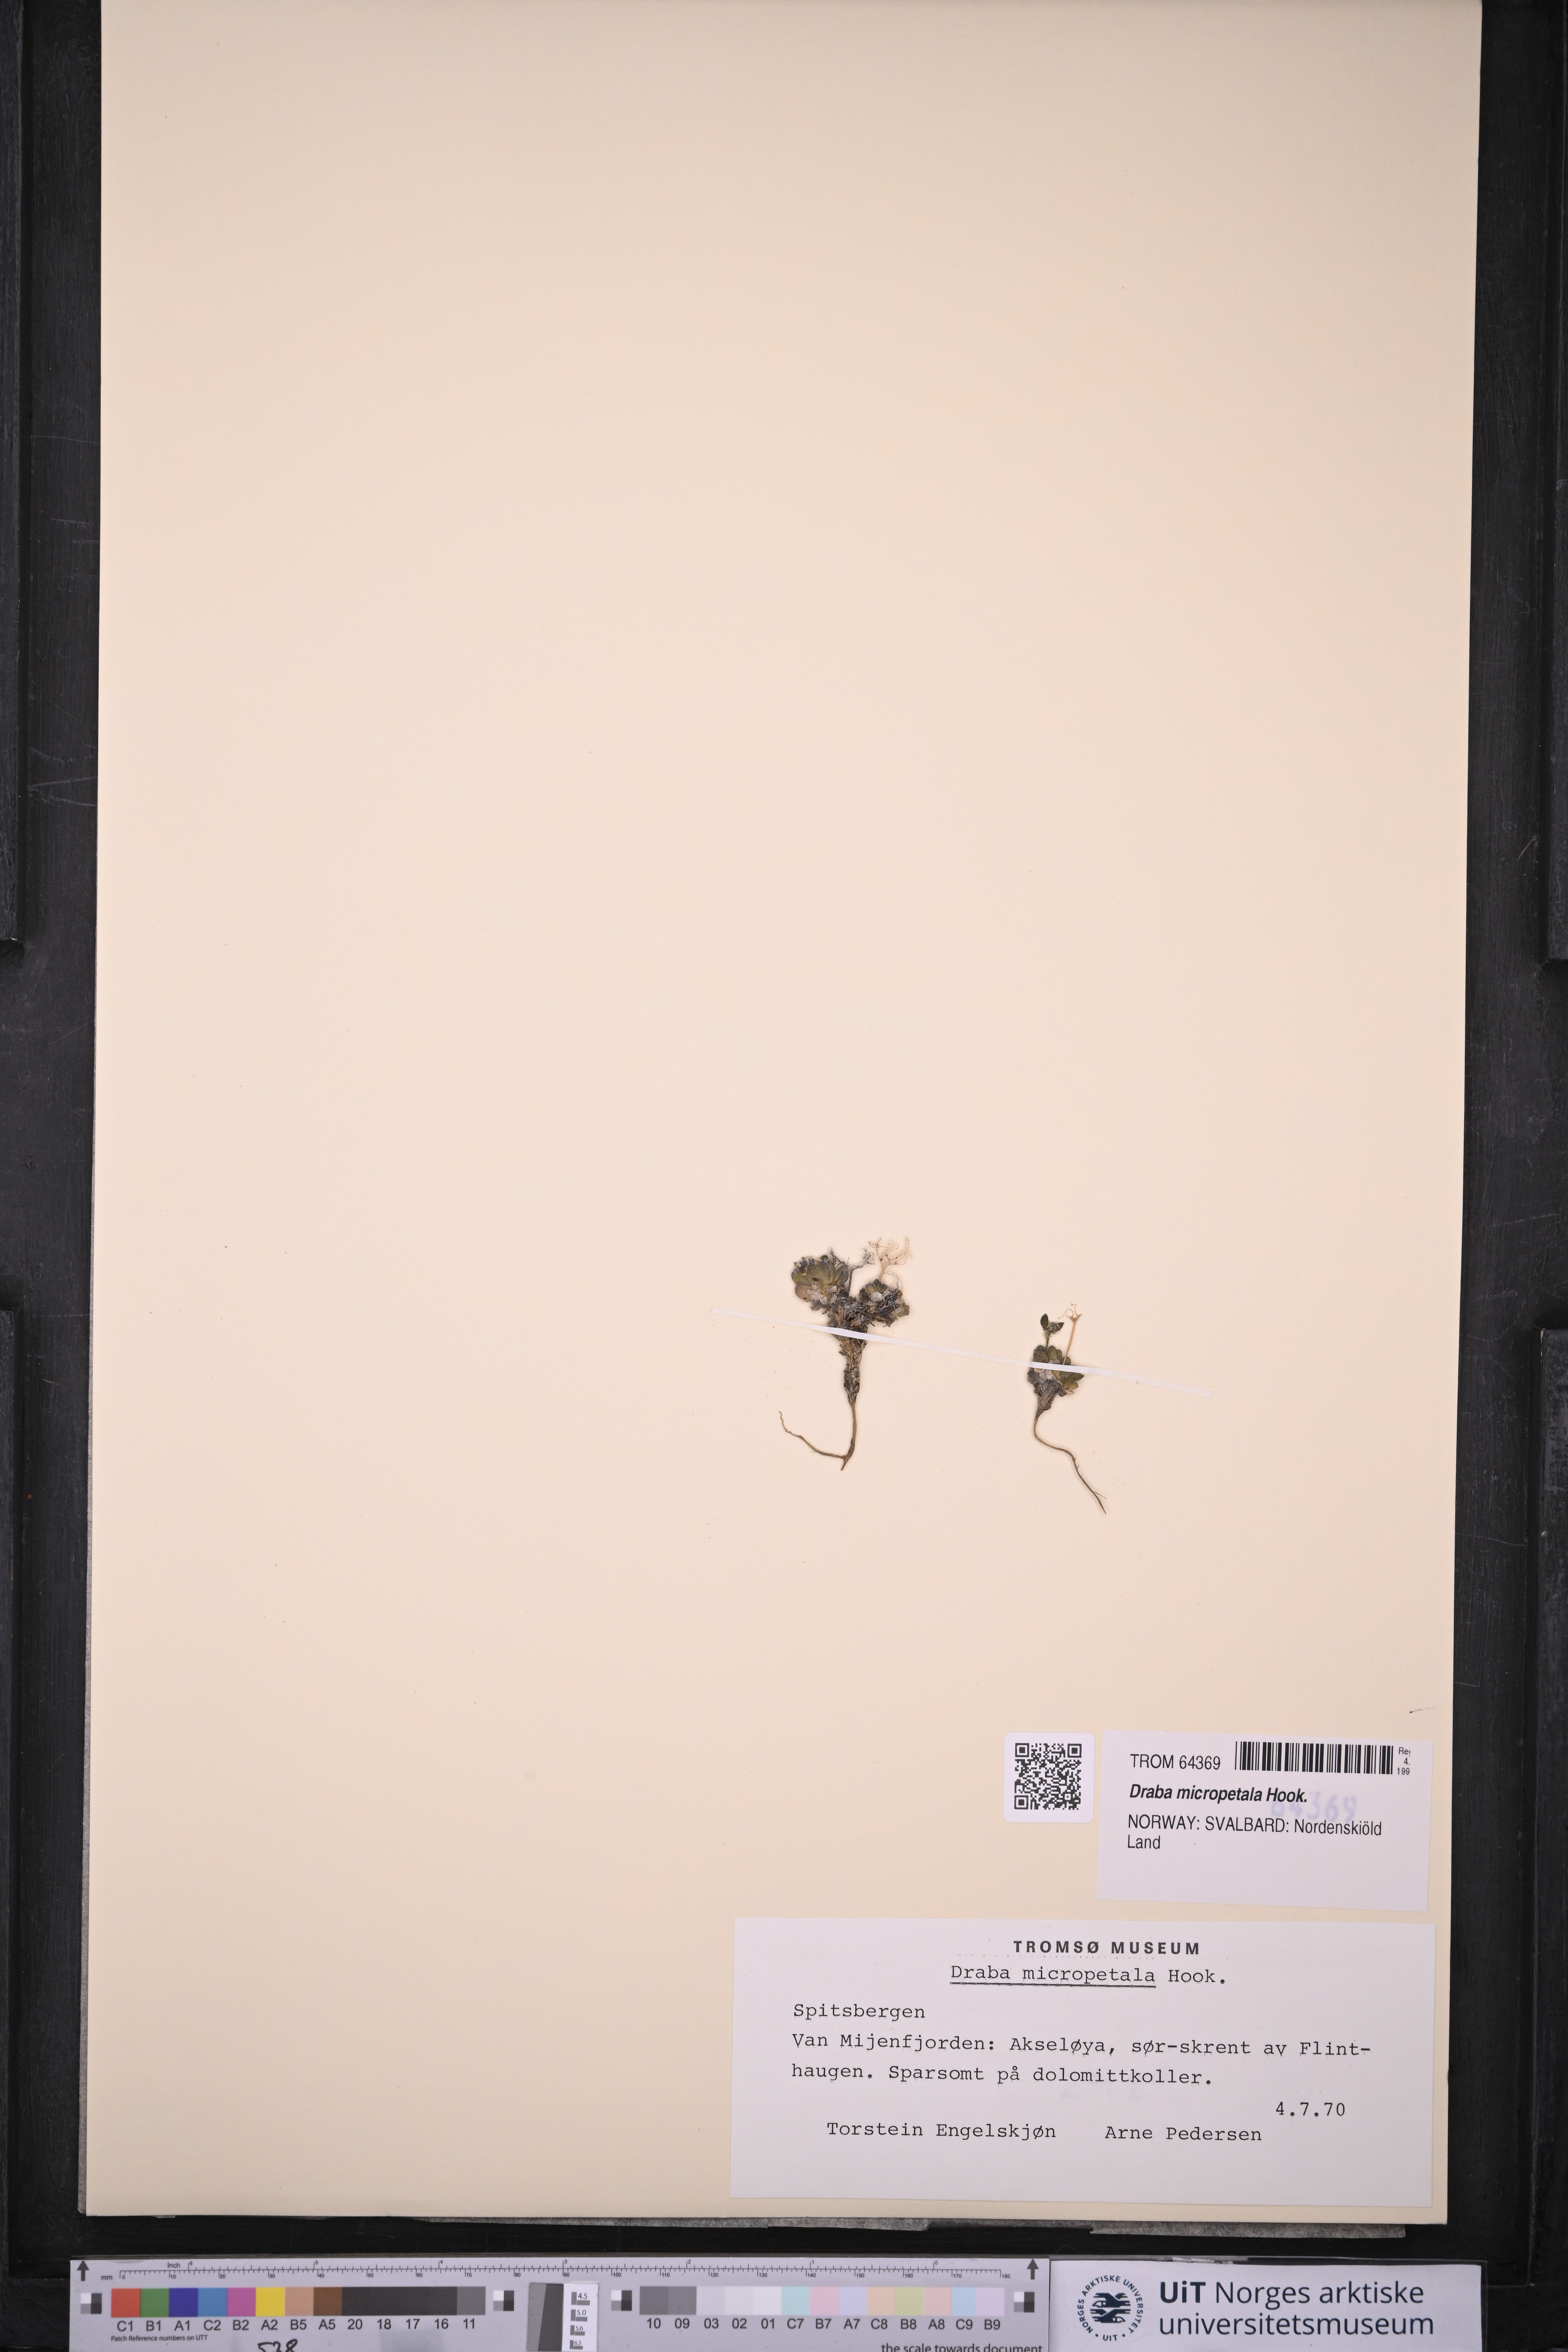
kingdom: Plantae
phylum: Tracheophyta
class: Magnoliopsida
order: Brassicales
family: Brassicaceae
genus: Draba
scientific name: Draba micropetala
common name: Small-flowered draba
